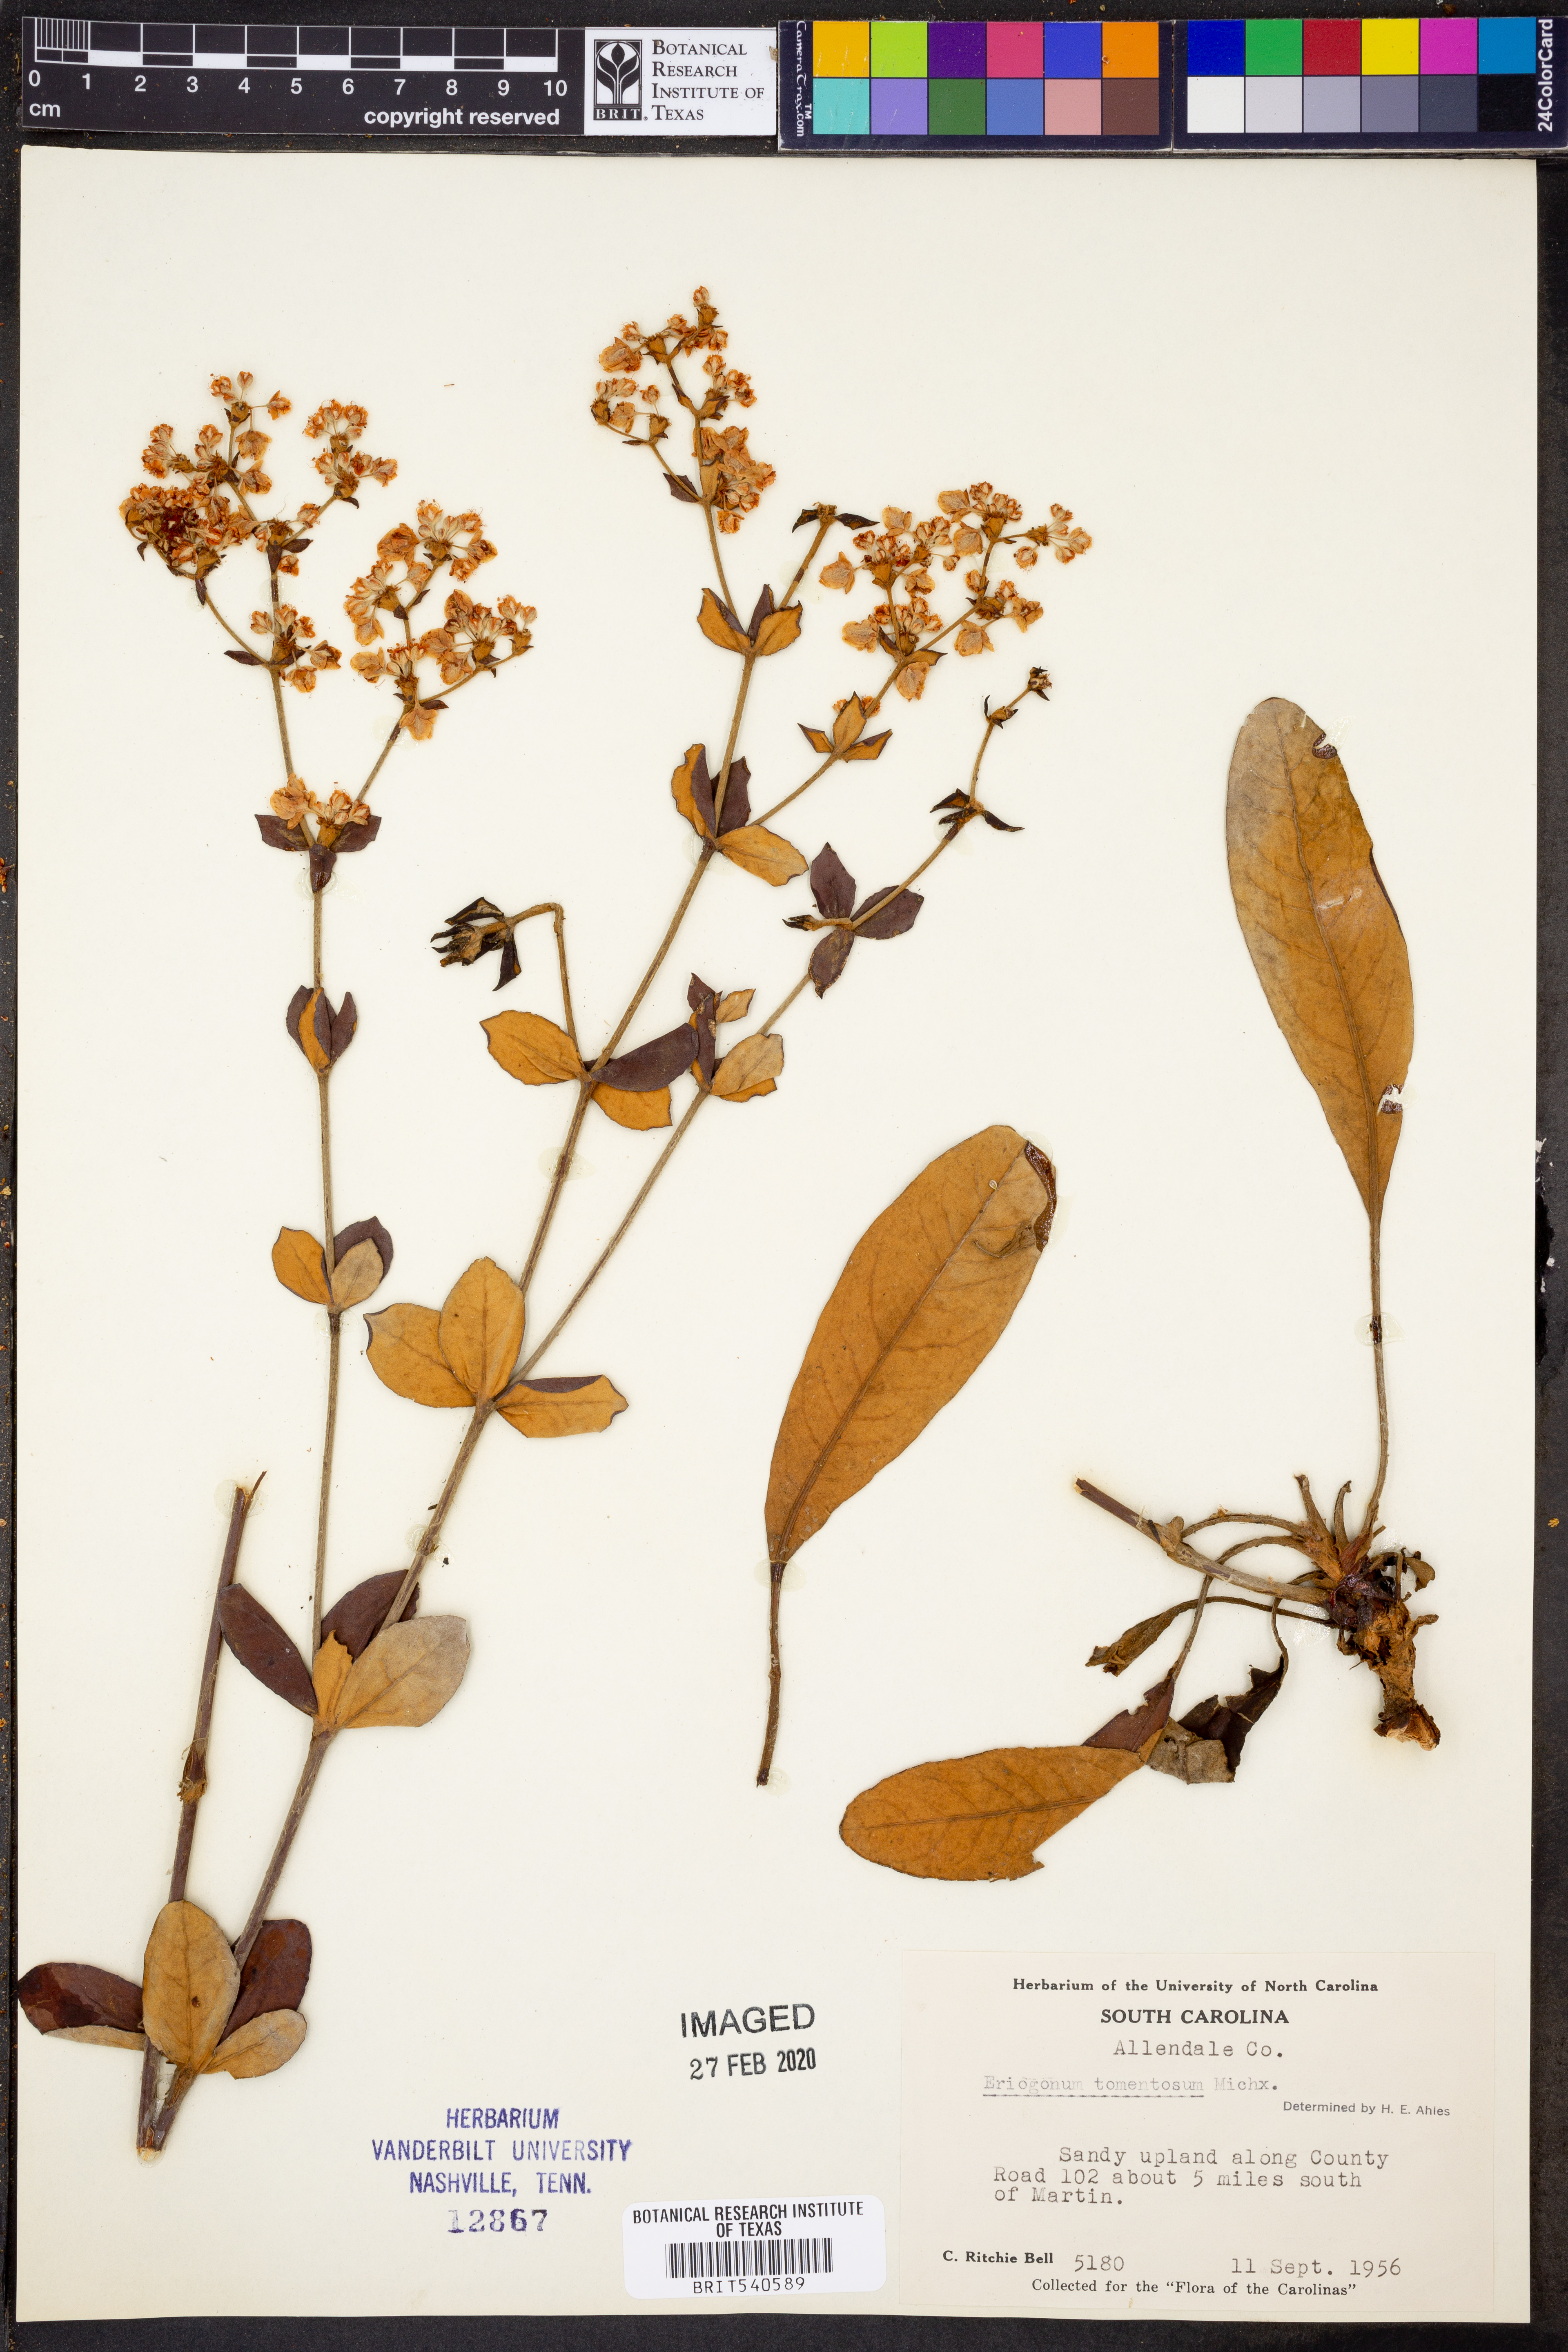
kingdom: Plantae
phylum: Tracheophyta
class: Magnoliopsida
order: Caryophyllales
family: Polygonaceae
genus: Eriogonum
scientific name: Eriogonum tomentosum
